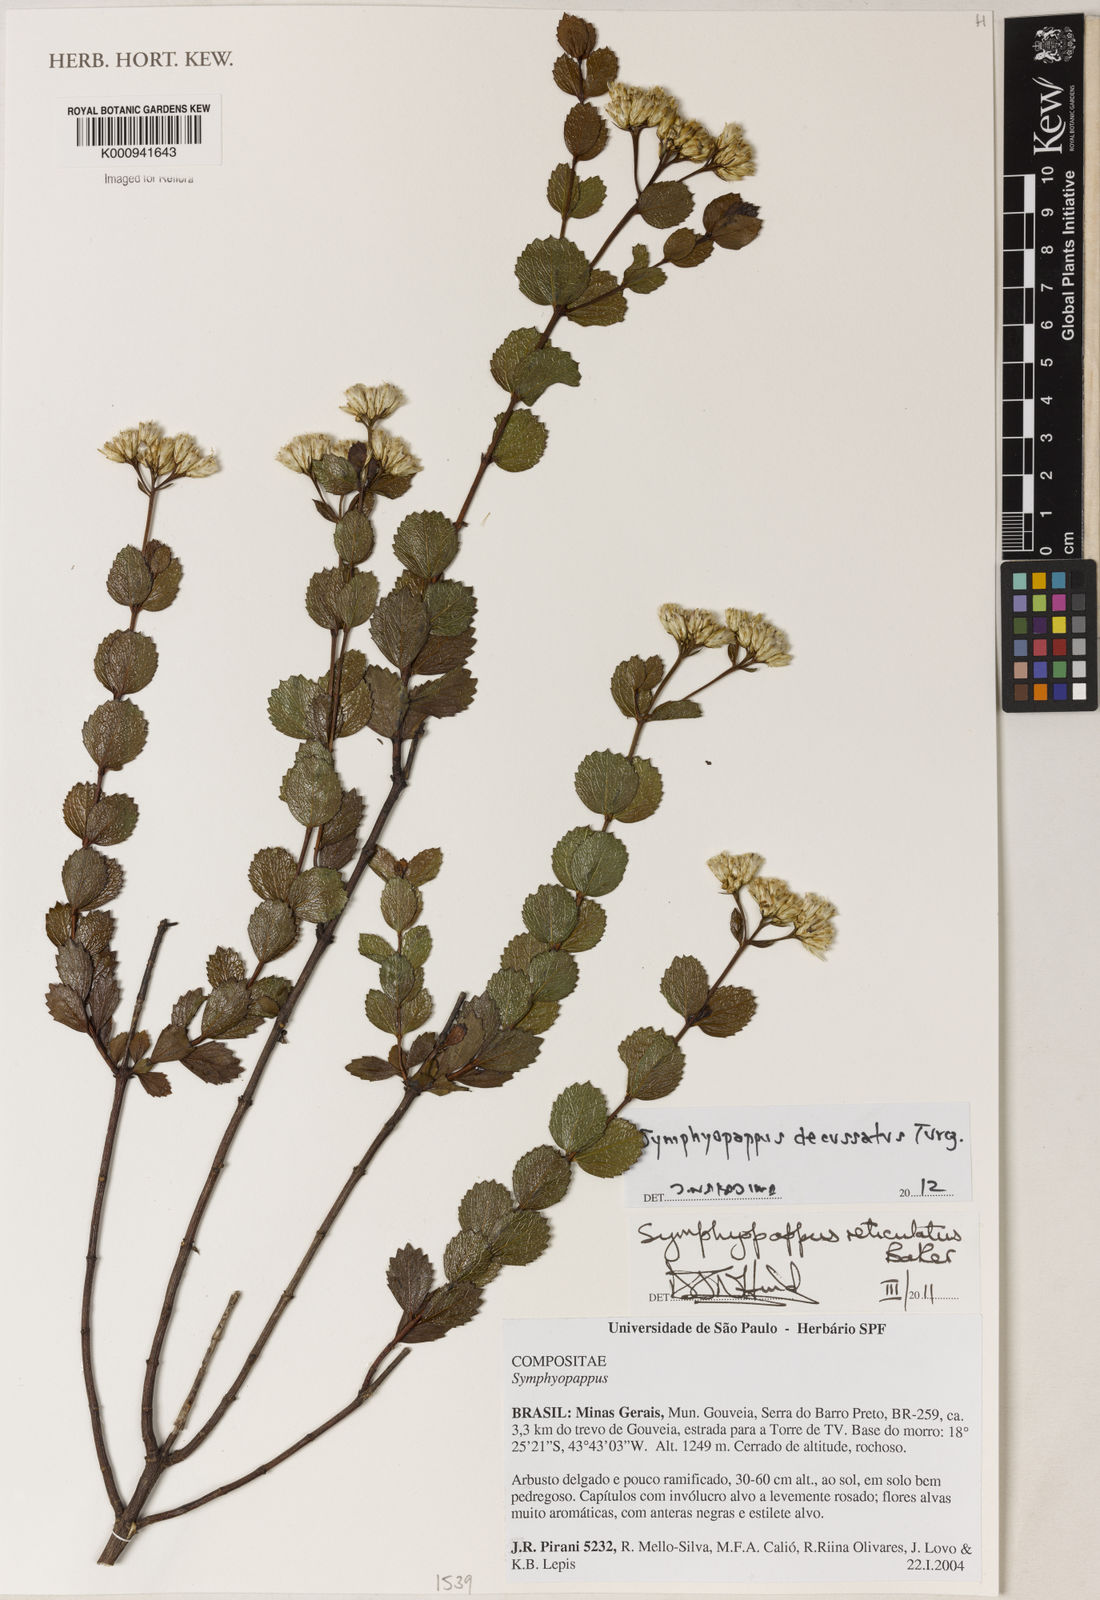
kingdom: Plantae
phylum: Tracheophyta
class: Magnoliopsida
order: Asterales
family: Asteraceae
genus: Symphyopappus
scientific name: Symphyopappus decussatus
